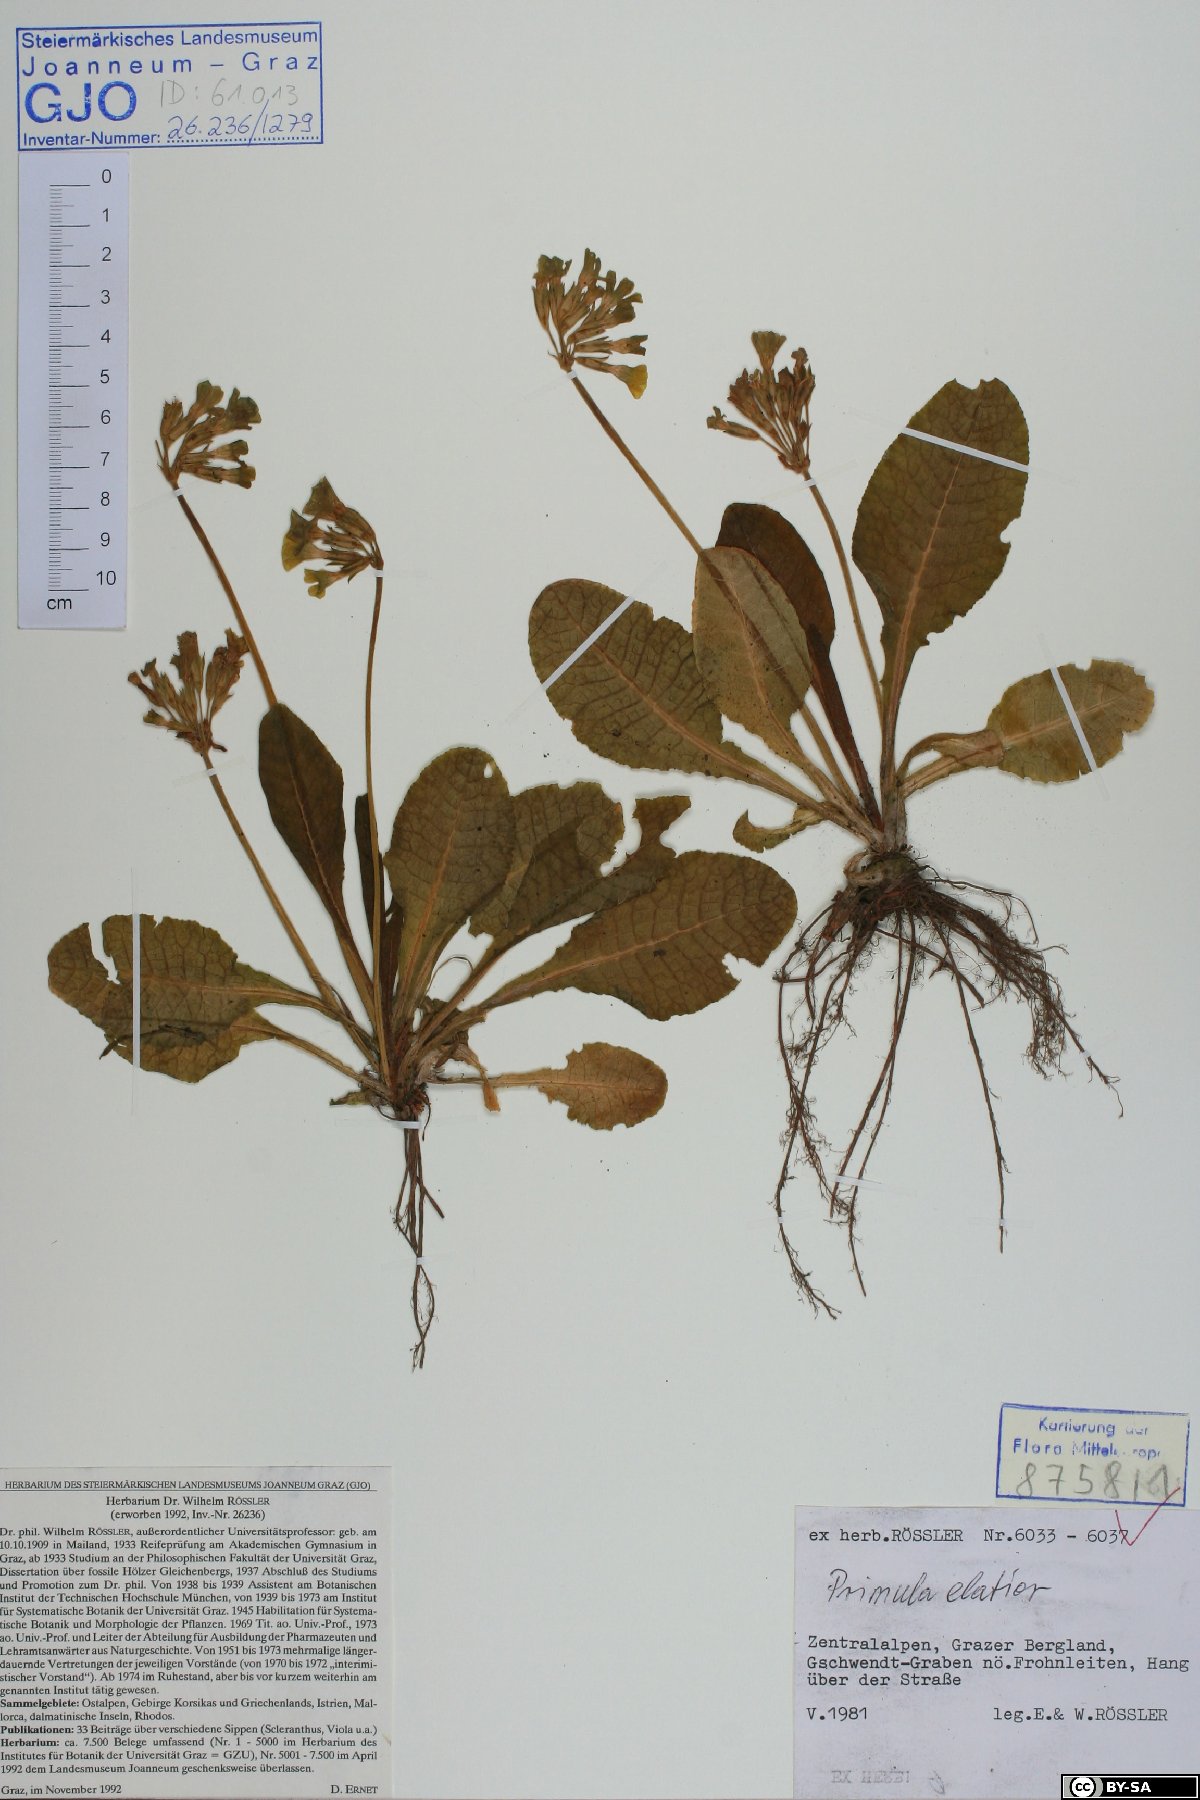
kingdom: Plantae
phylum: Tracheophyta
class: Magnoliopsida
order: Ericales
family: Primulaceae
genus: Primula
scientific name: Primula elatior
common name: Oxlip
